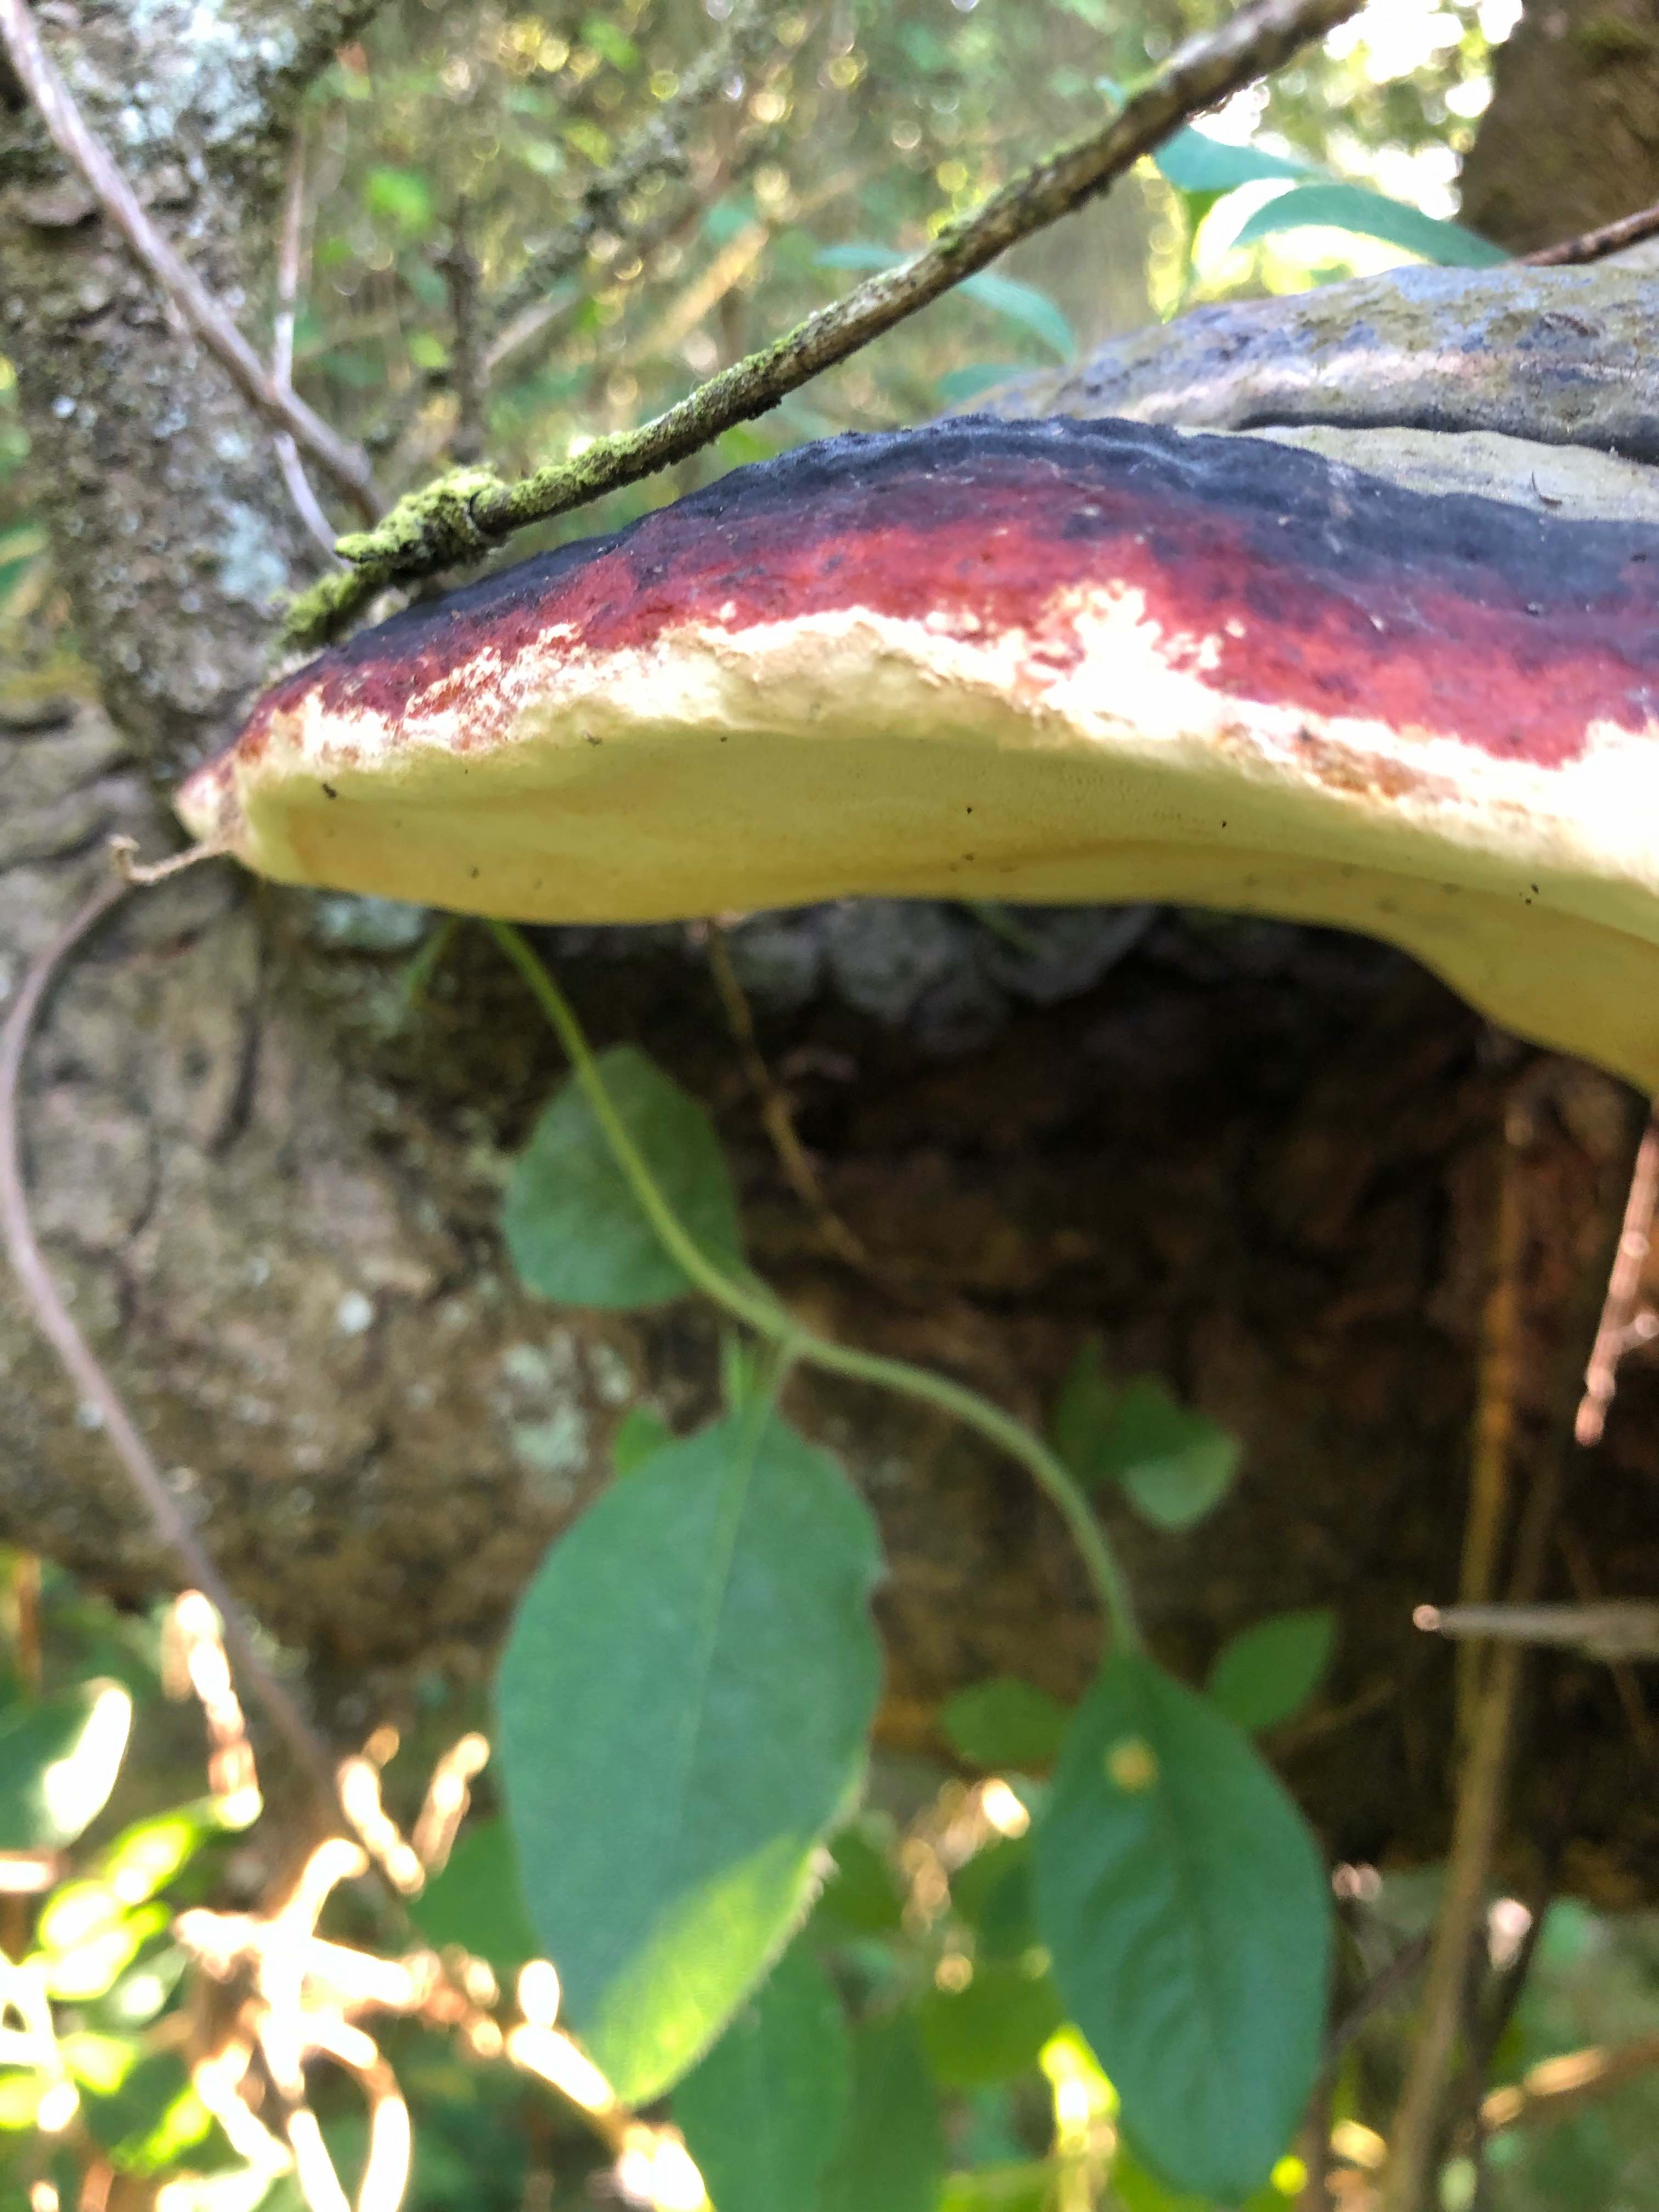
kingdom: Fungi
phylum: Basidiomycota
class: Agaricomycetes
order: Polyporales
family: Fomitopsidaceae
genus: Fomitopsis
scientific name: Fomitopsis pinicola
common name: randbæltet hovporesvamp
